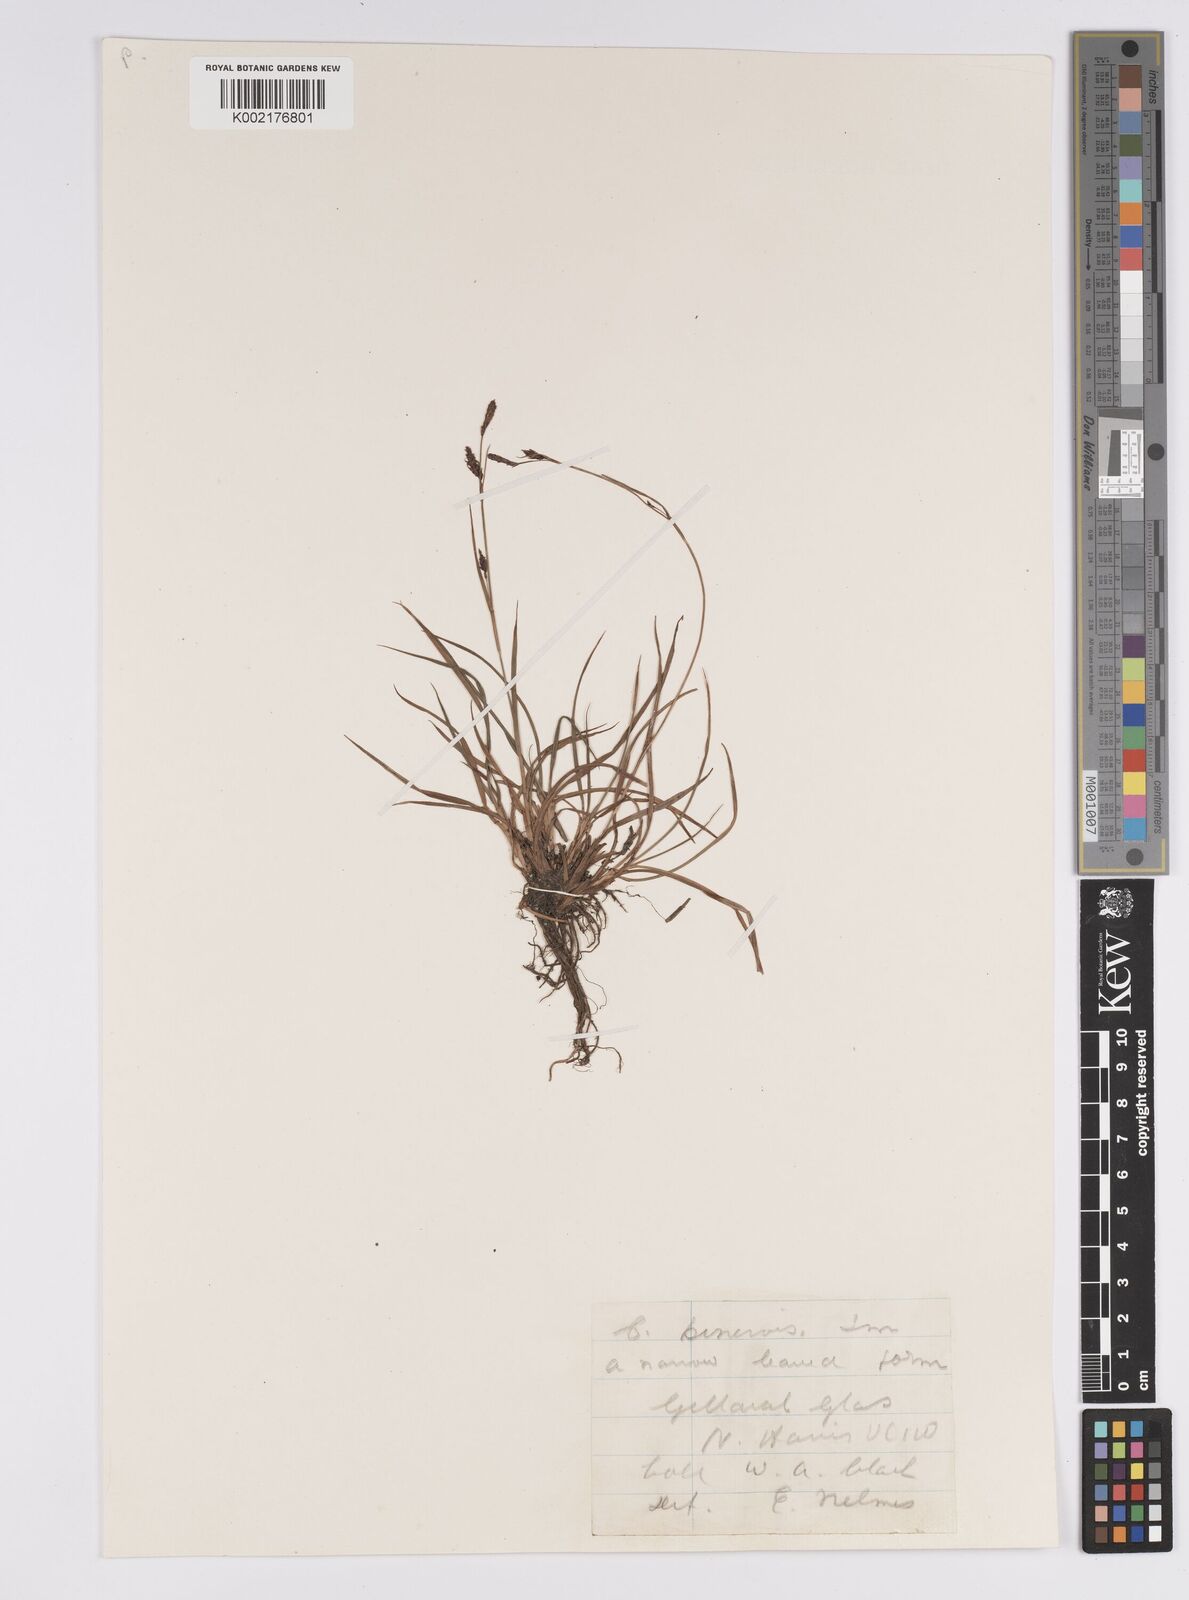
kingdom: Plantae
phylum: Tracheophyta
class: Liliopsida
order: Poales
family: Cyperaceae
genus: Carex
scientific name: Carex binervis
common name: Green-ribbed sedge
